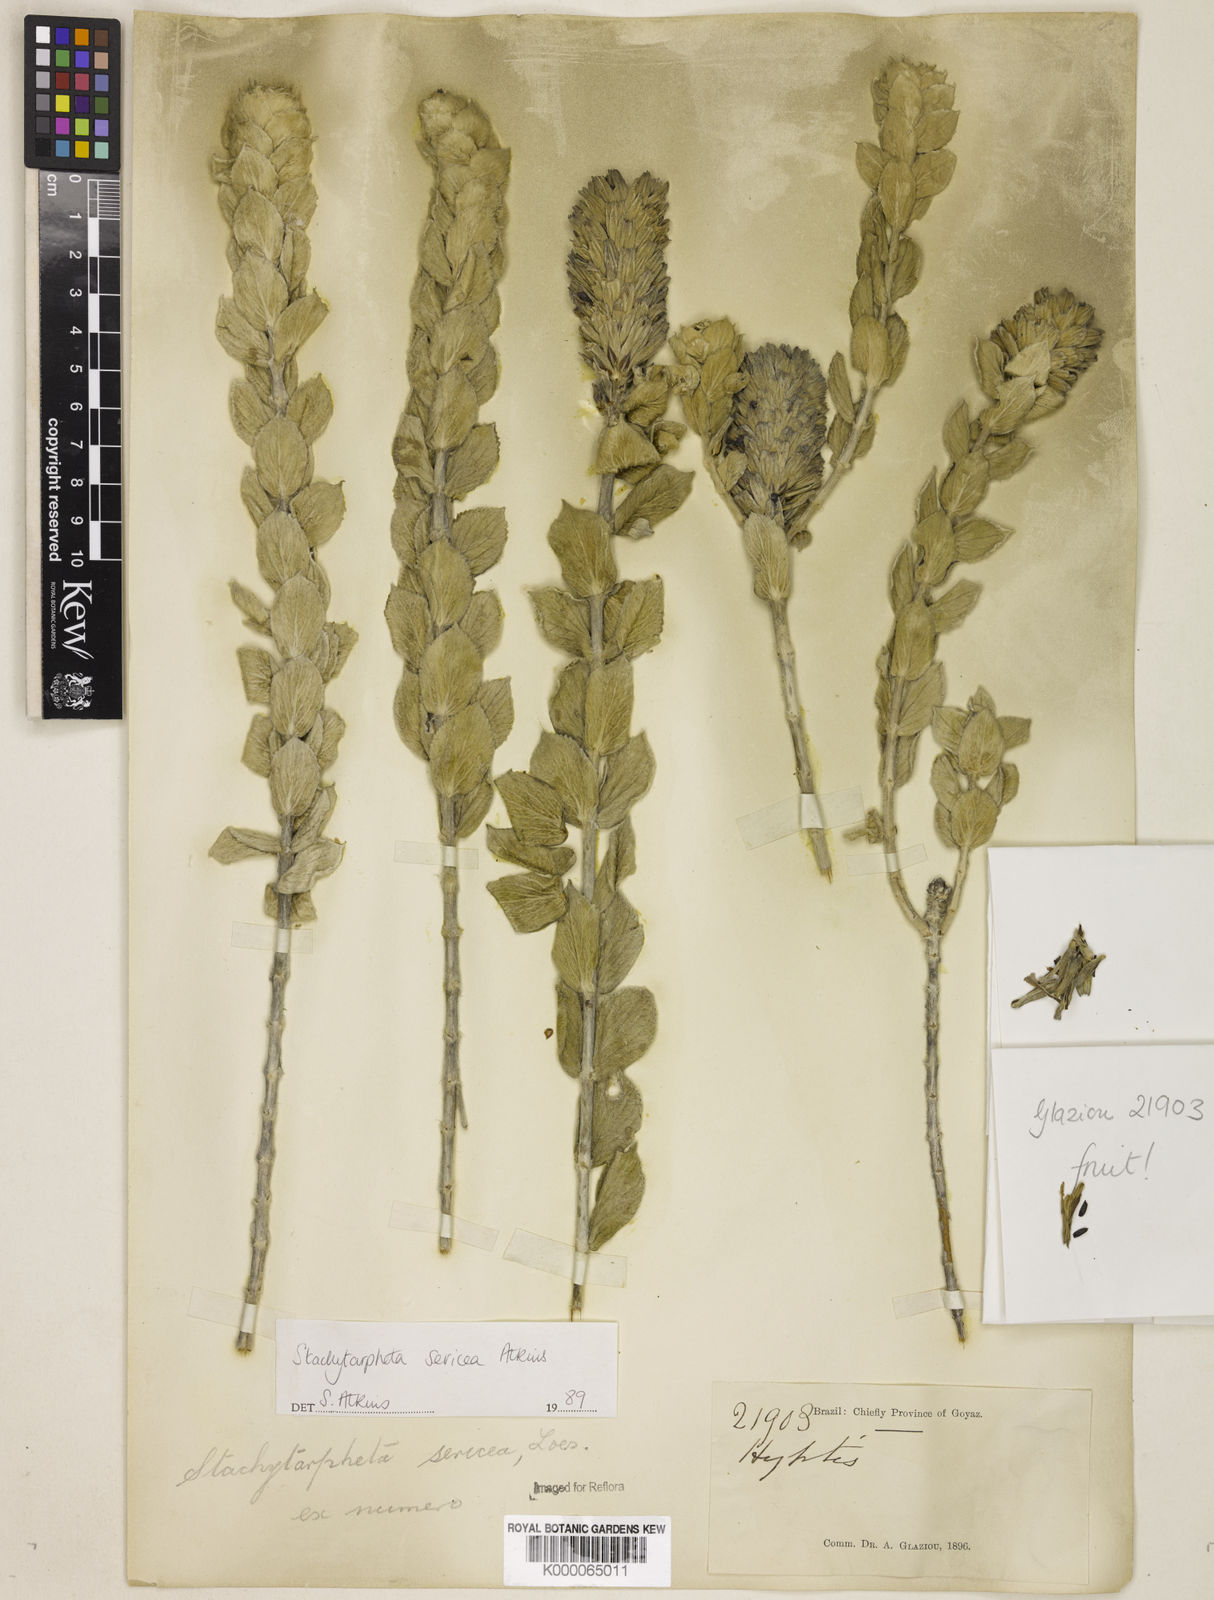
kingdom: Plantae
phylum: Tracheophyta
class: Magnoliopsida
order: Lamiales
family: Verbenaceae
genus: Stachytarpheta
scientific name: Stachytarpheta sericea
